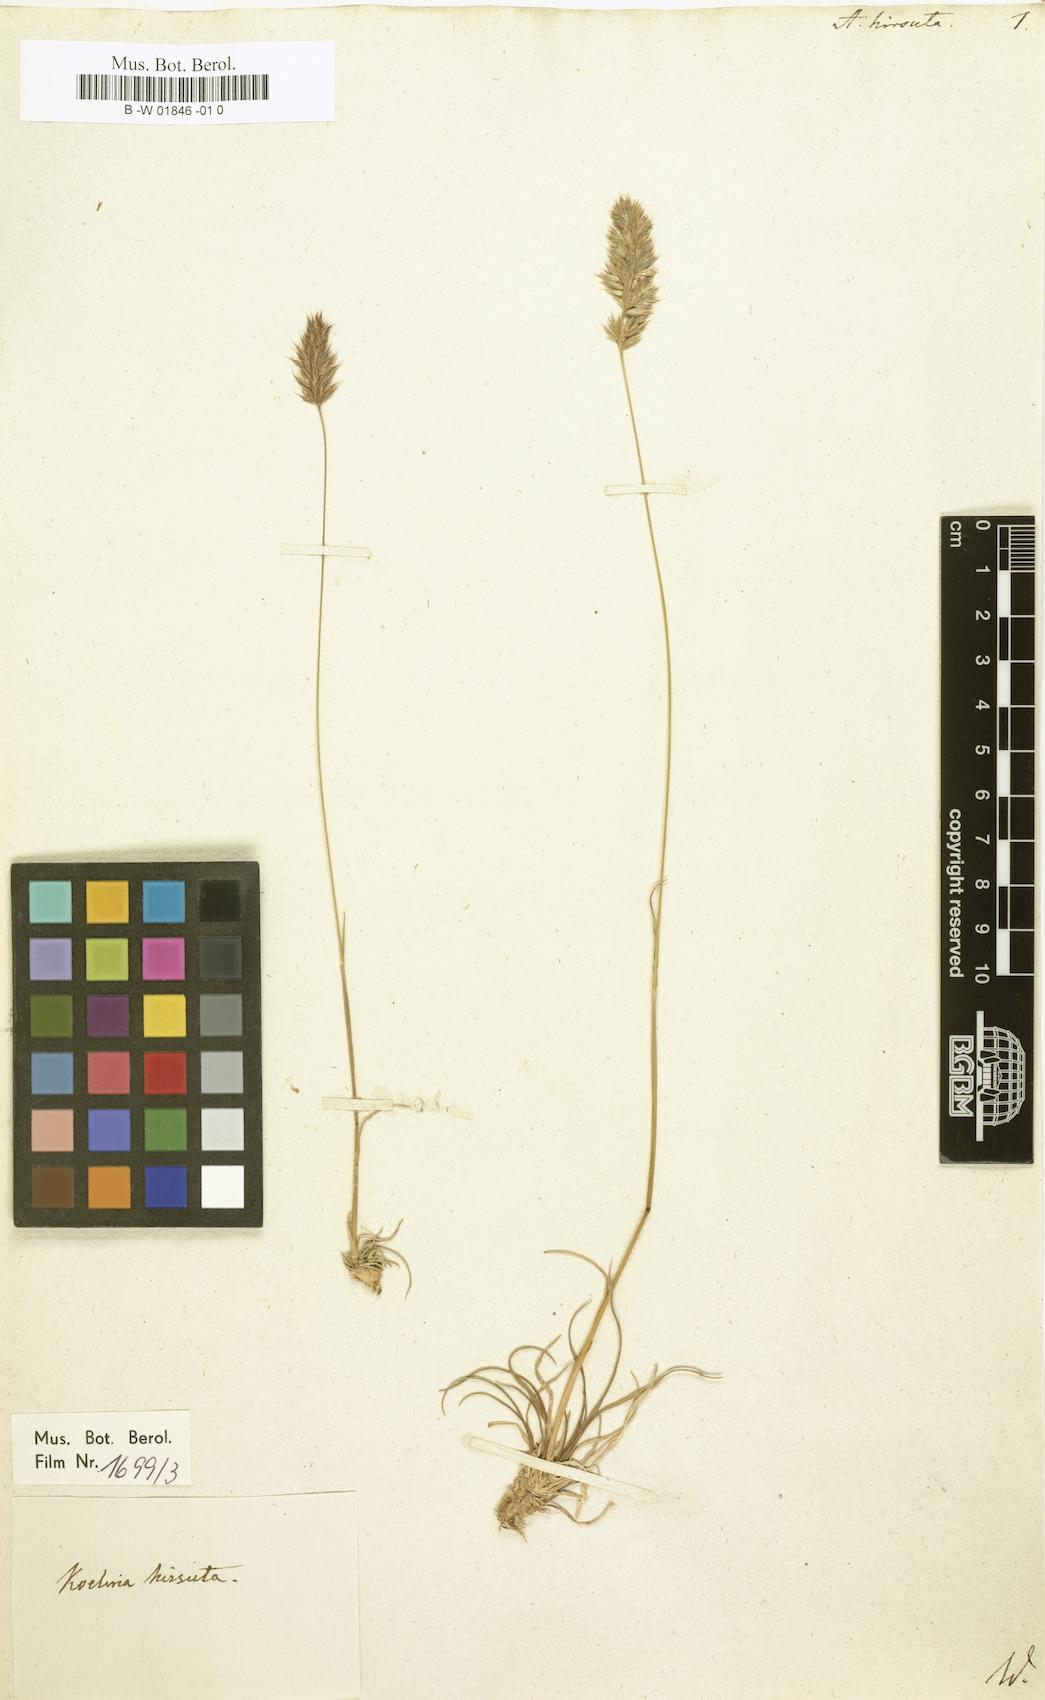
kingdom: Plantae
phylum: Tracheophyta
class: Liliopsida
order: Poales
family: Poaceae
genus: Koeleria
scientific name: Koeleria hirsuta
